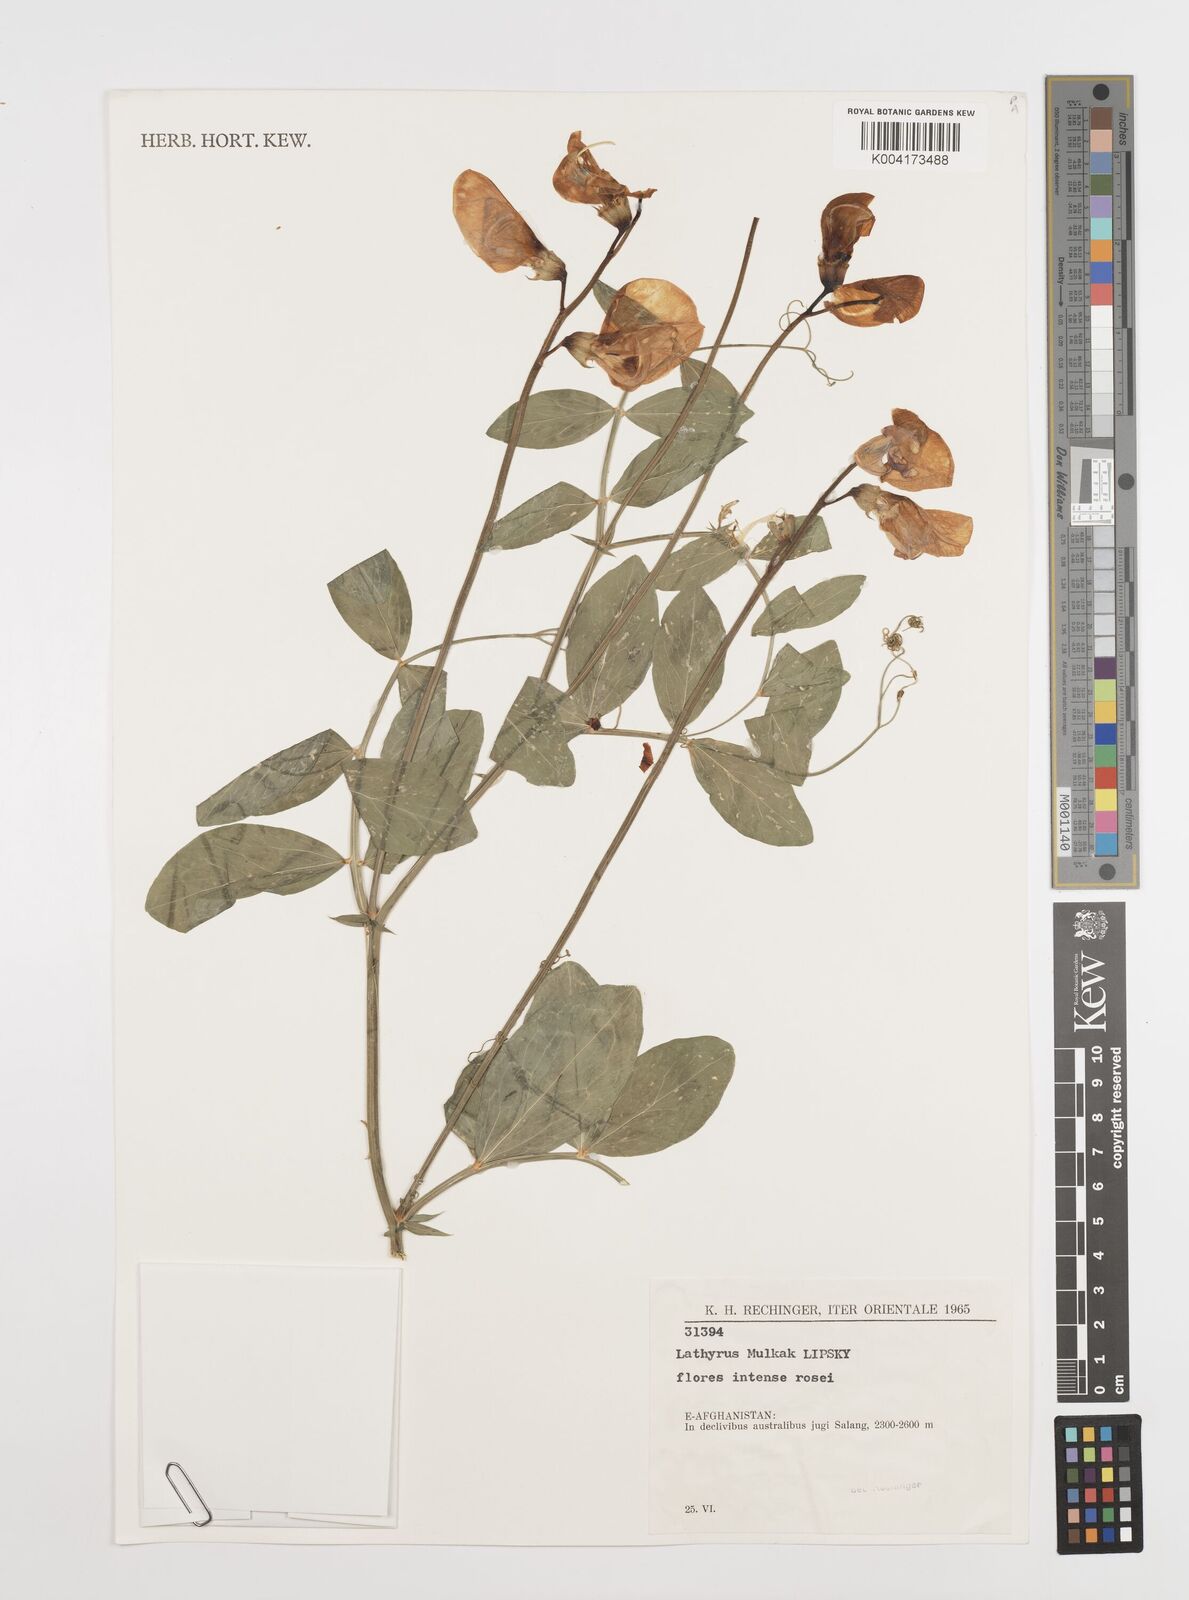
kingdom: Plantae
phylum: Tracheophyta
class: Magnoliopsida
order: Fabales
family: Fabaceae
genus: Lathyrus
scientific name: Lathyrus mulkak
